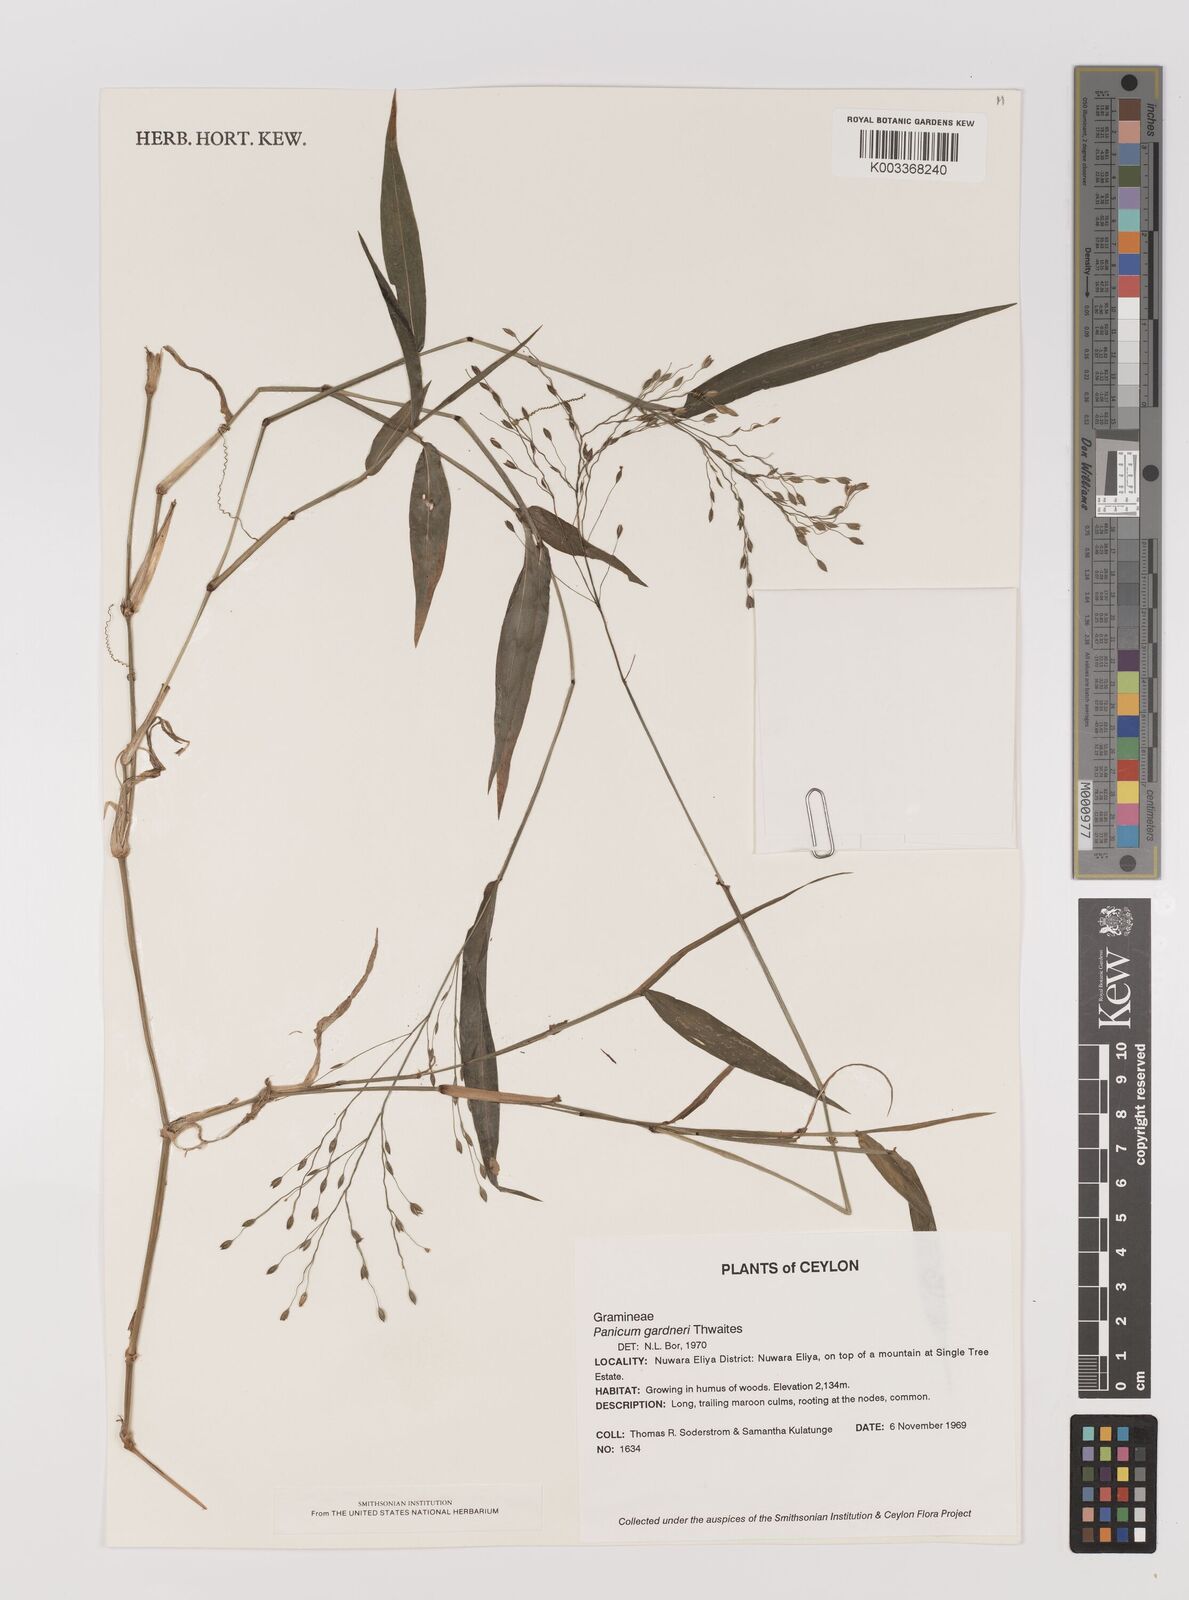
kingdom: Plantae
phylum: Tracheophyta
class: Liliopsida
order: Poales
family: Poaceae
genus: Panicum
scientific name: Panicum gardneri
